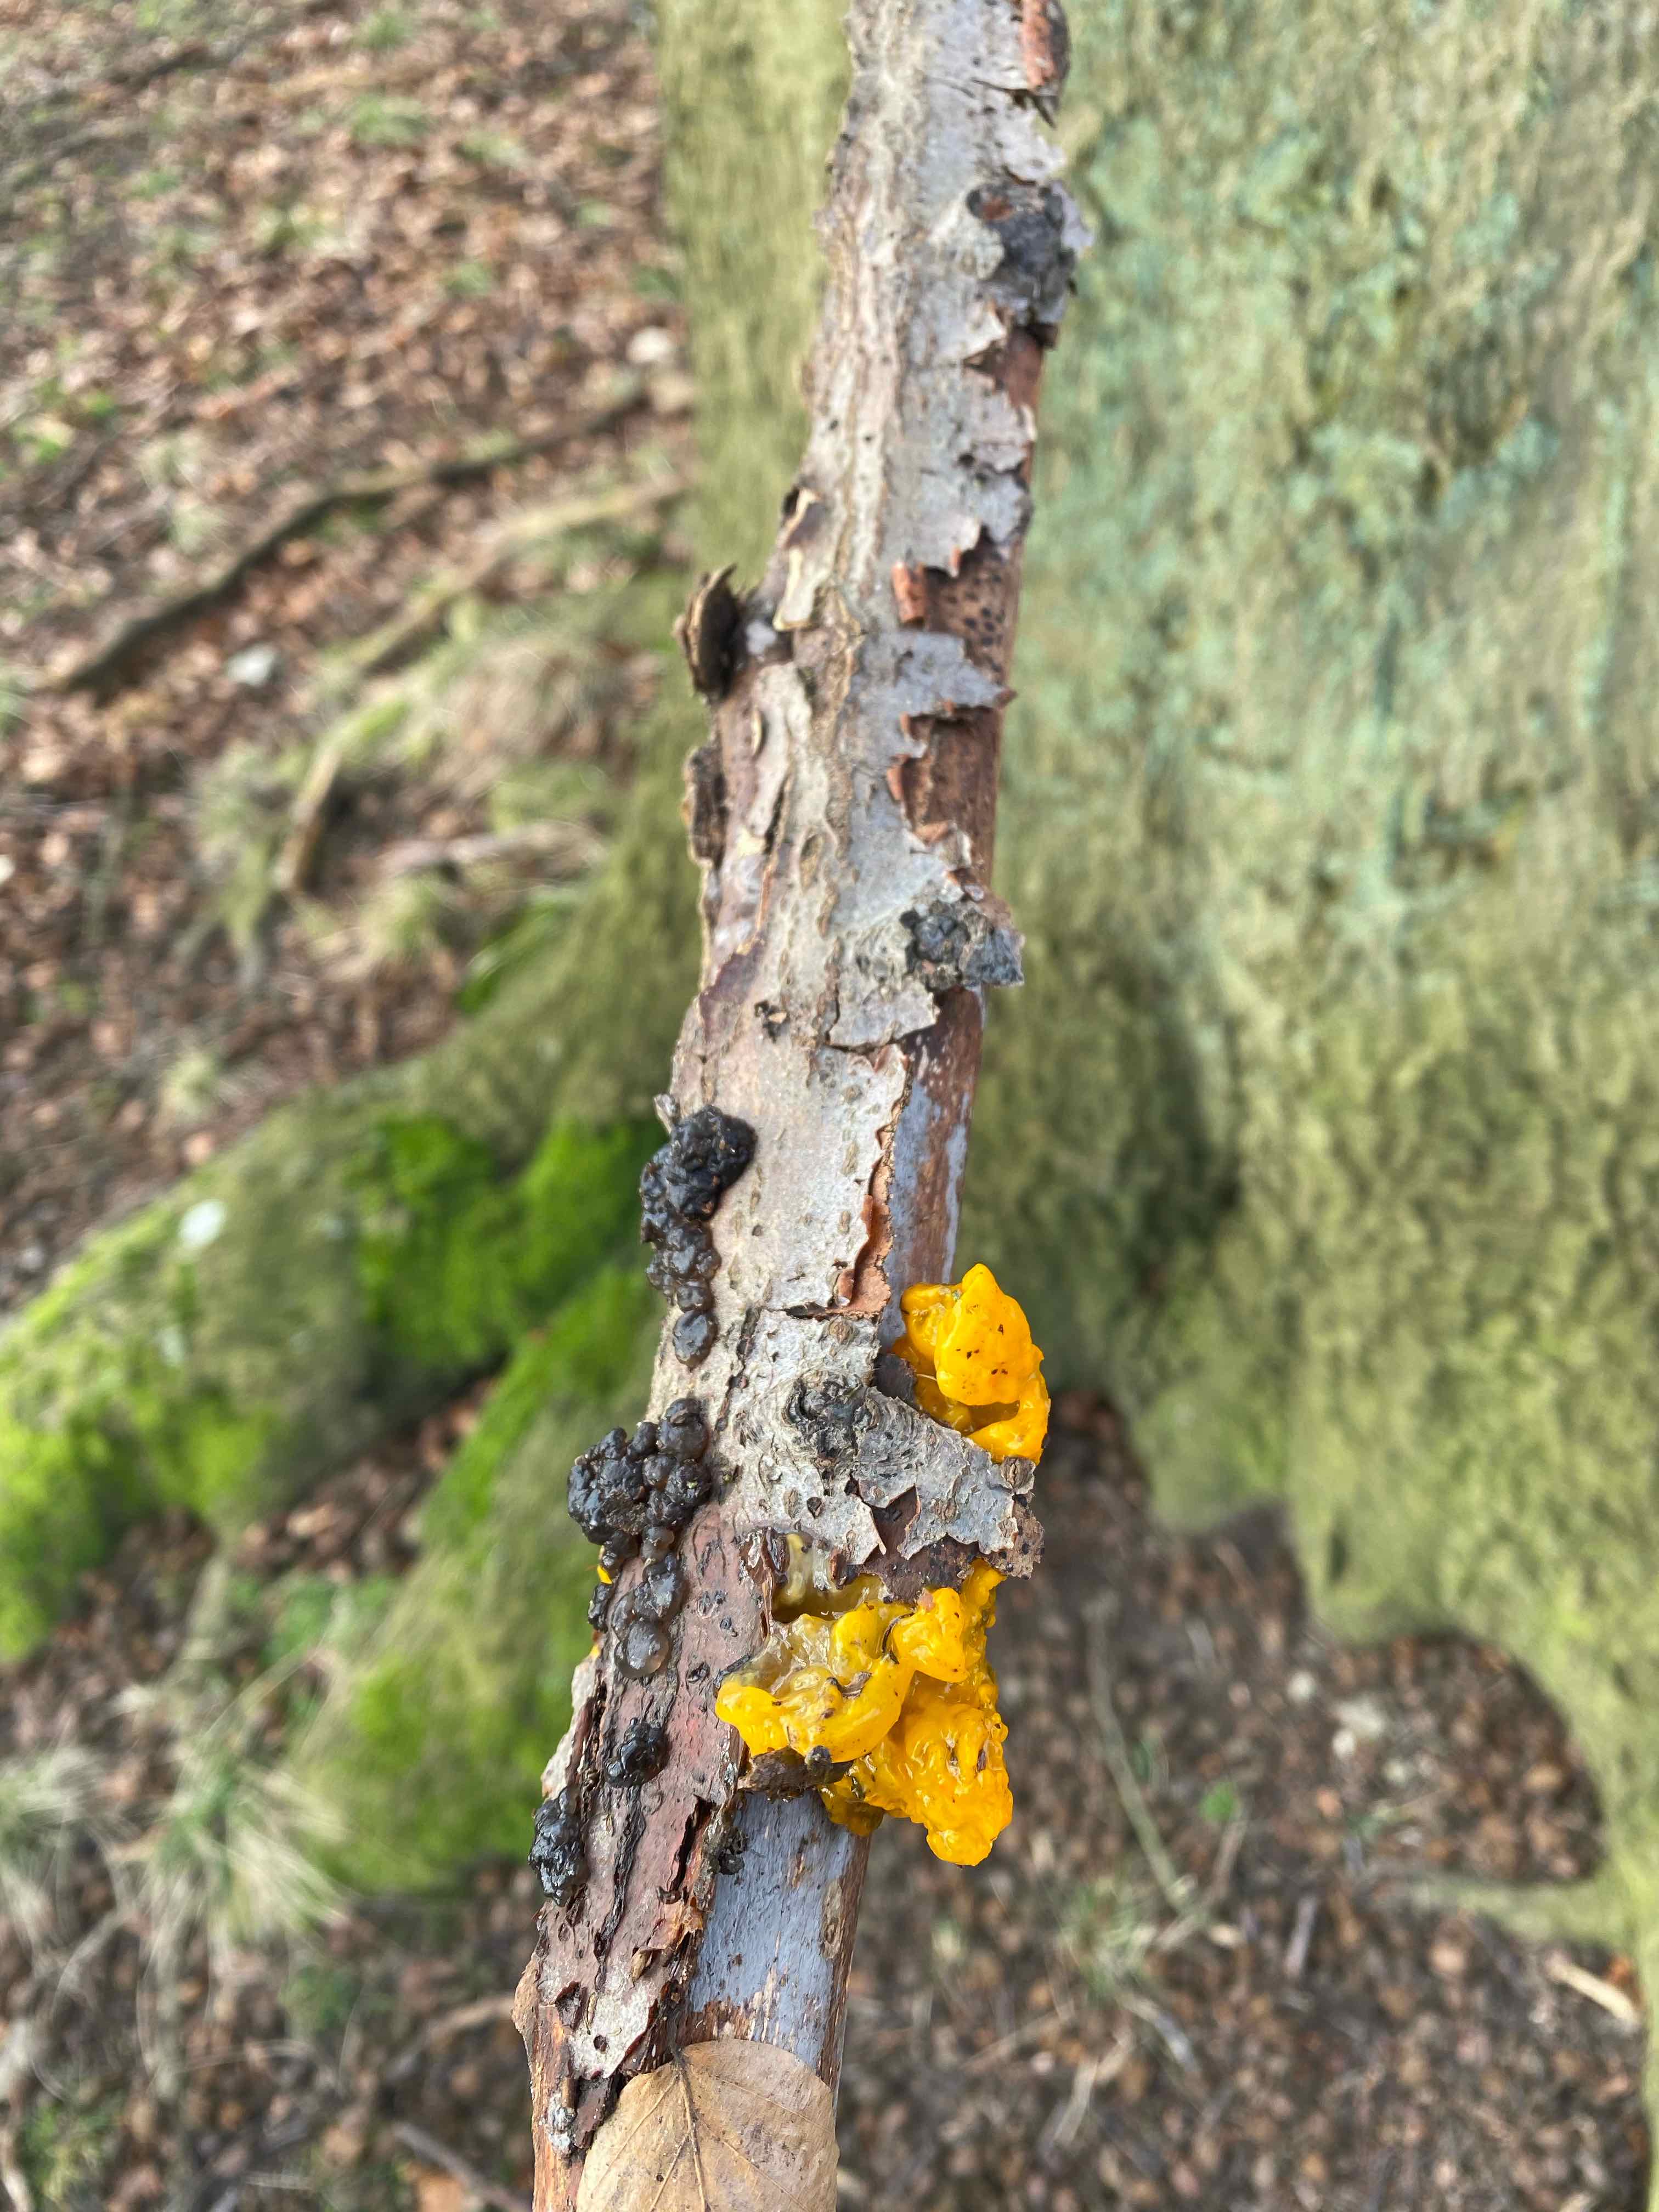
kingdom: Fungi
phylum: Basidiomycota
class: Tremellomycetes
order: Tremellales
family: Tremellaceae
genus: Tremella
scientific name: Tremella mesenterica
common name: gul bævresvamp
